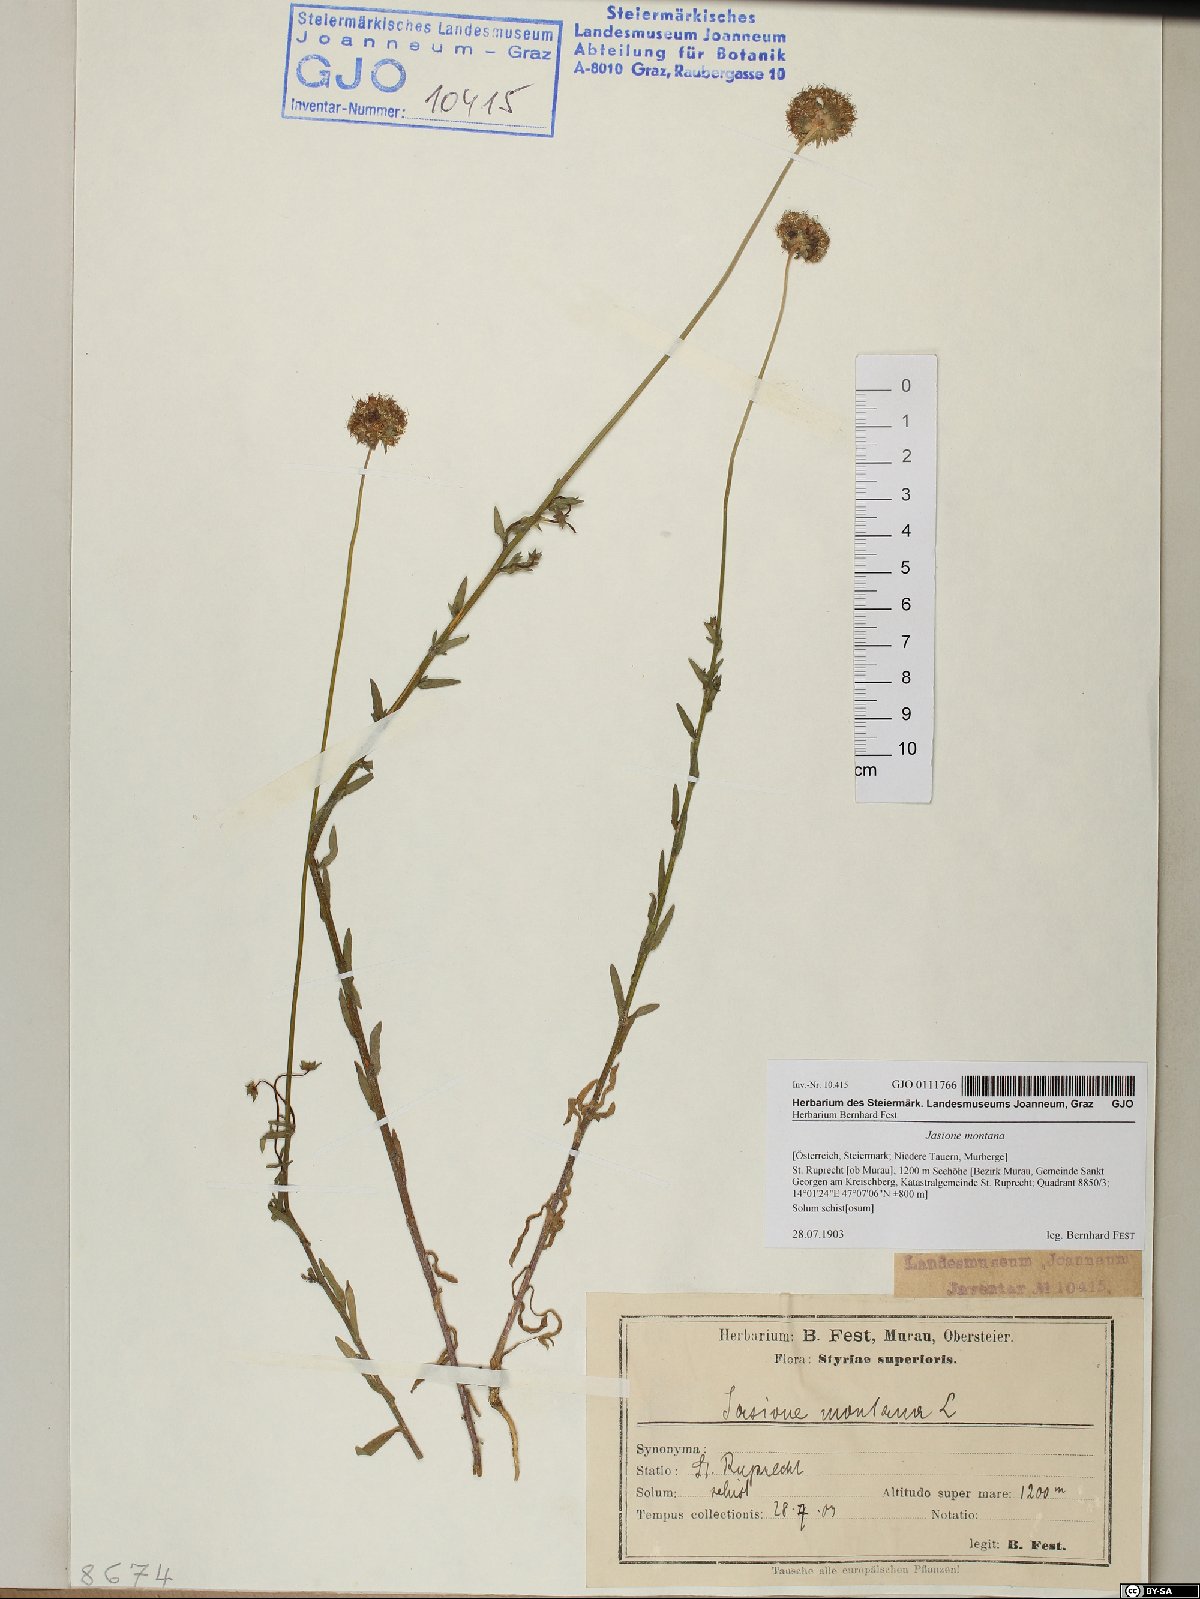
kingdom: Plantae
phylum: Tracheophyta
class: Magnoliopsida
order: Asterales
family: Campanulaceae
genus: Jasione
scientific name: Jasione montana
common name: Sheep's-bit
